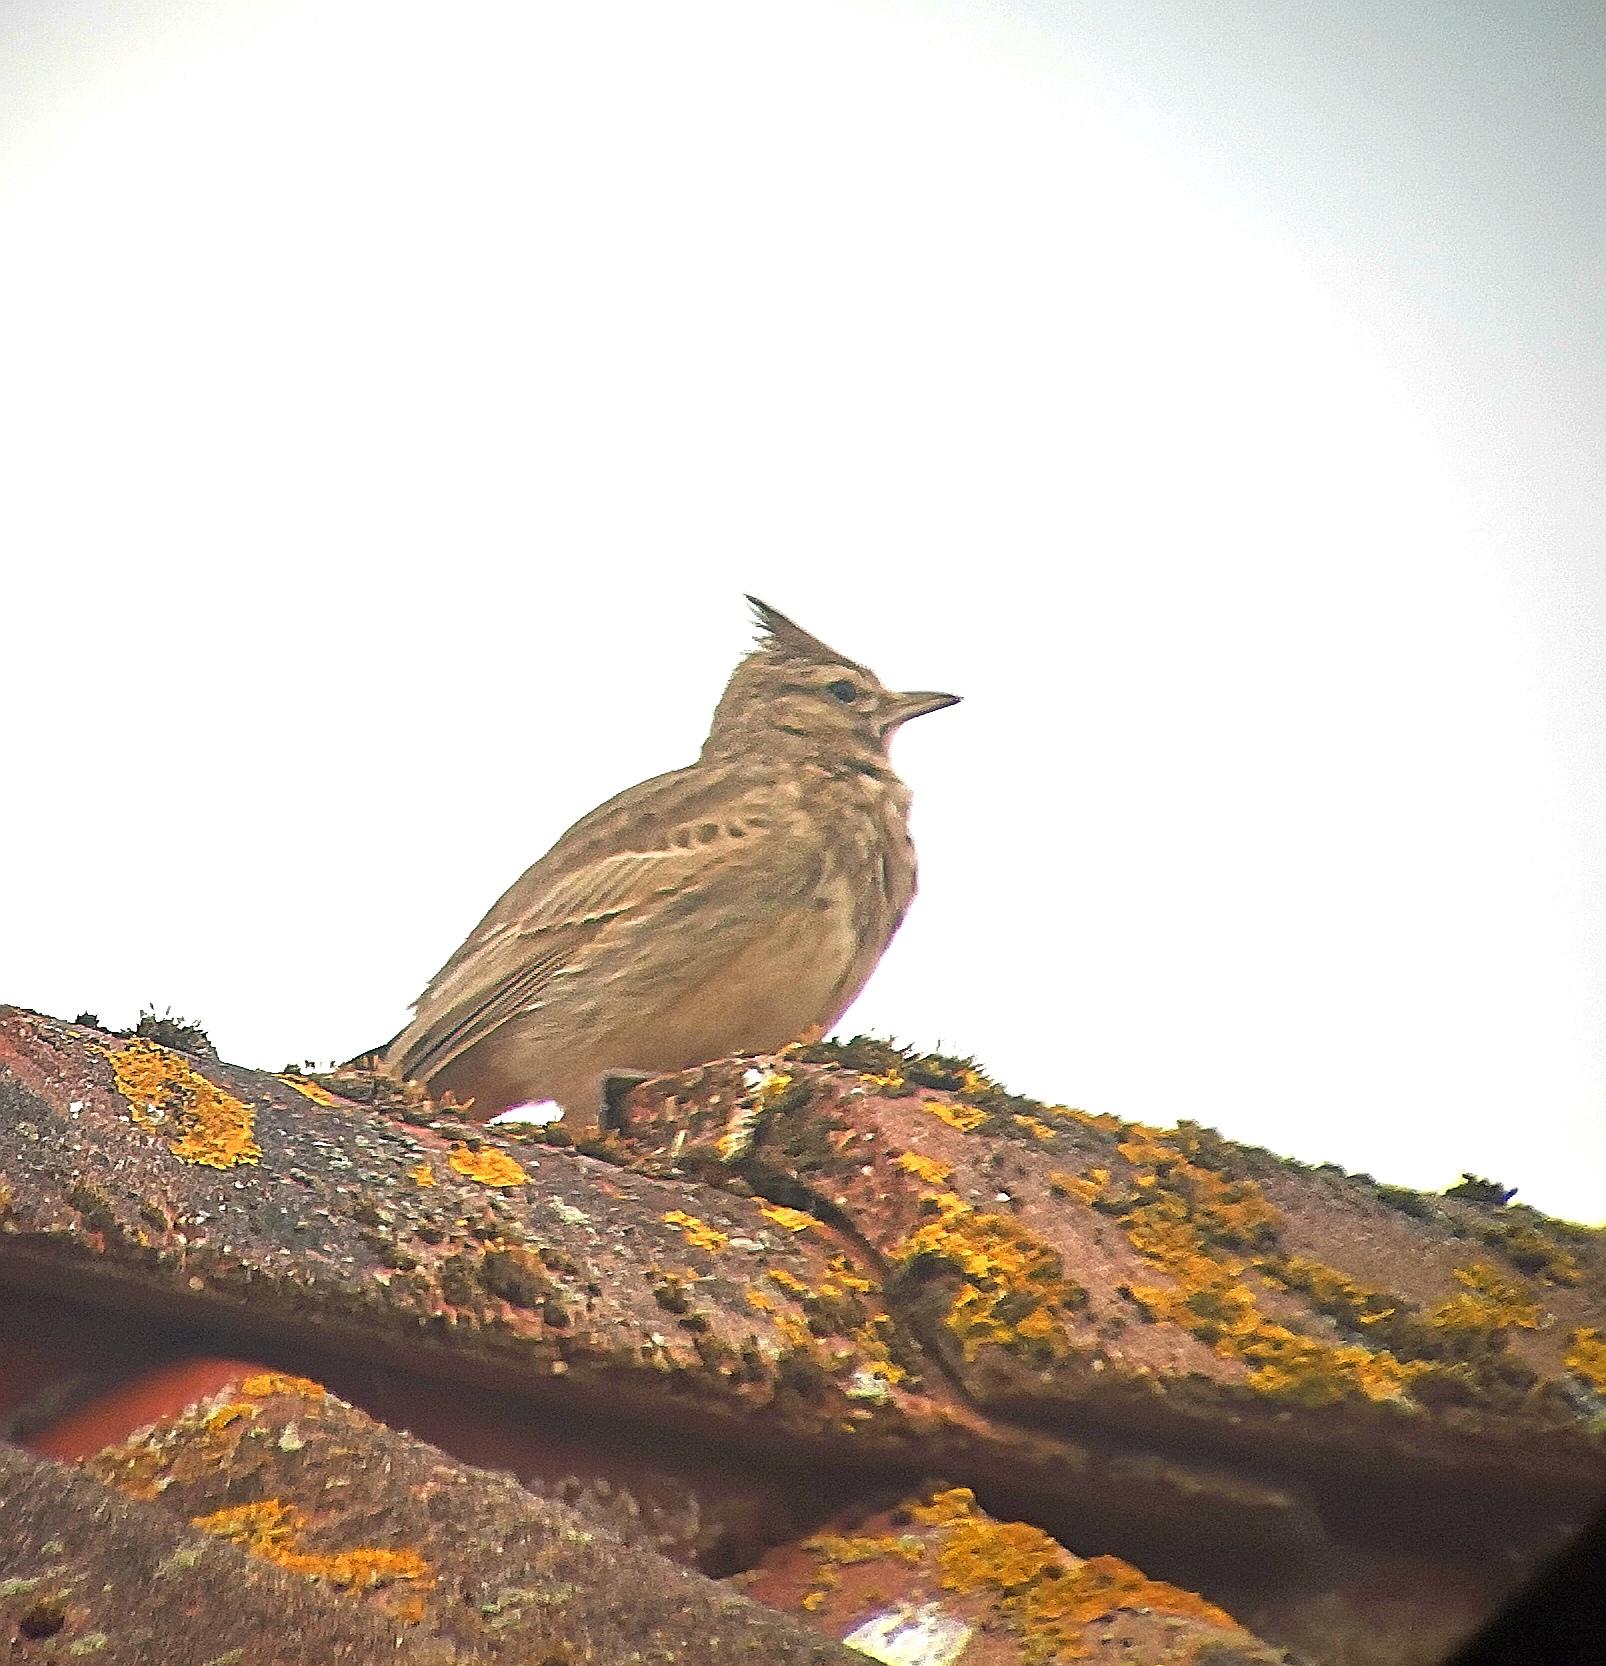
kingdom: Animalia
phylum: Chordata
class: Aves
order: Passeriformes
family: Alaudidae
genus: Galerida
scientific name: Galerida cristata
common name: Toplærke
